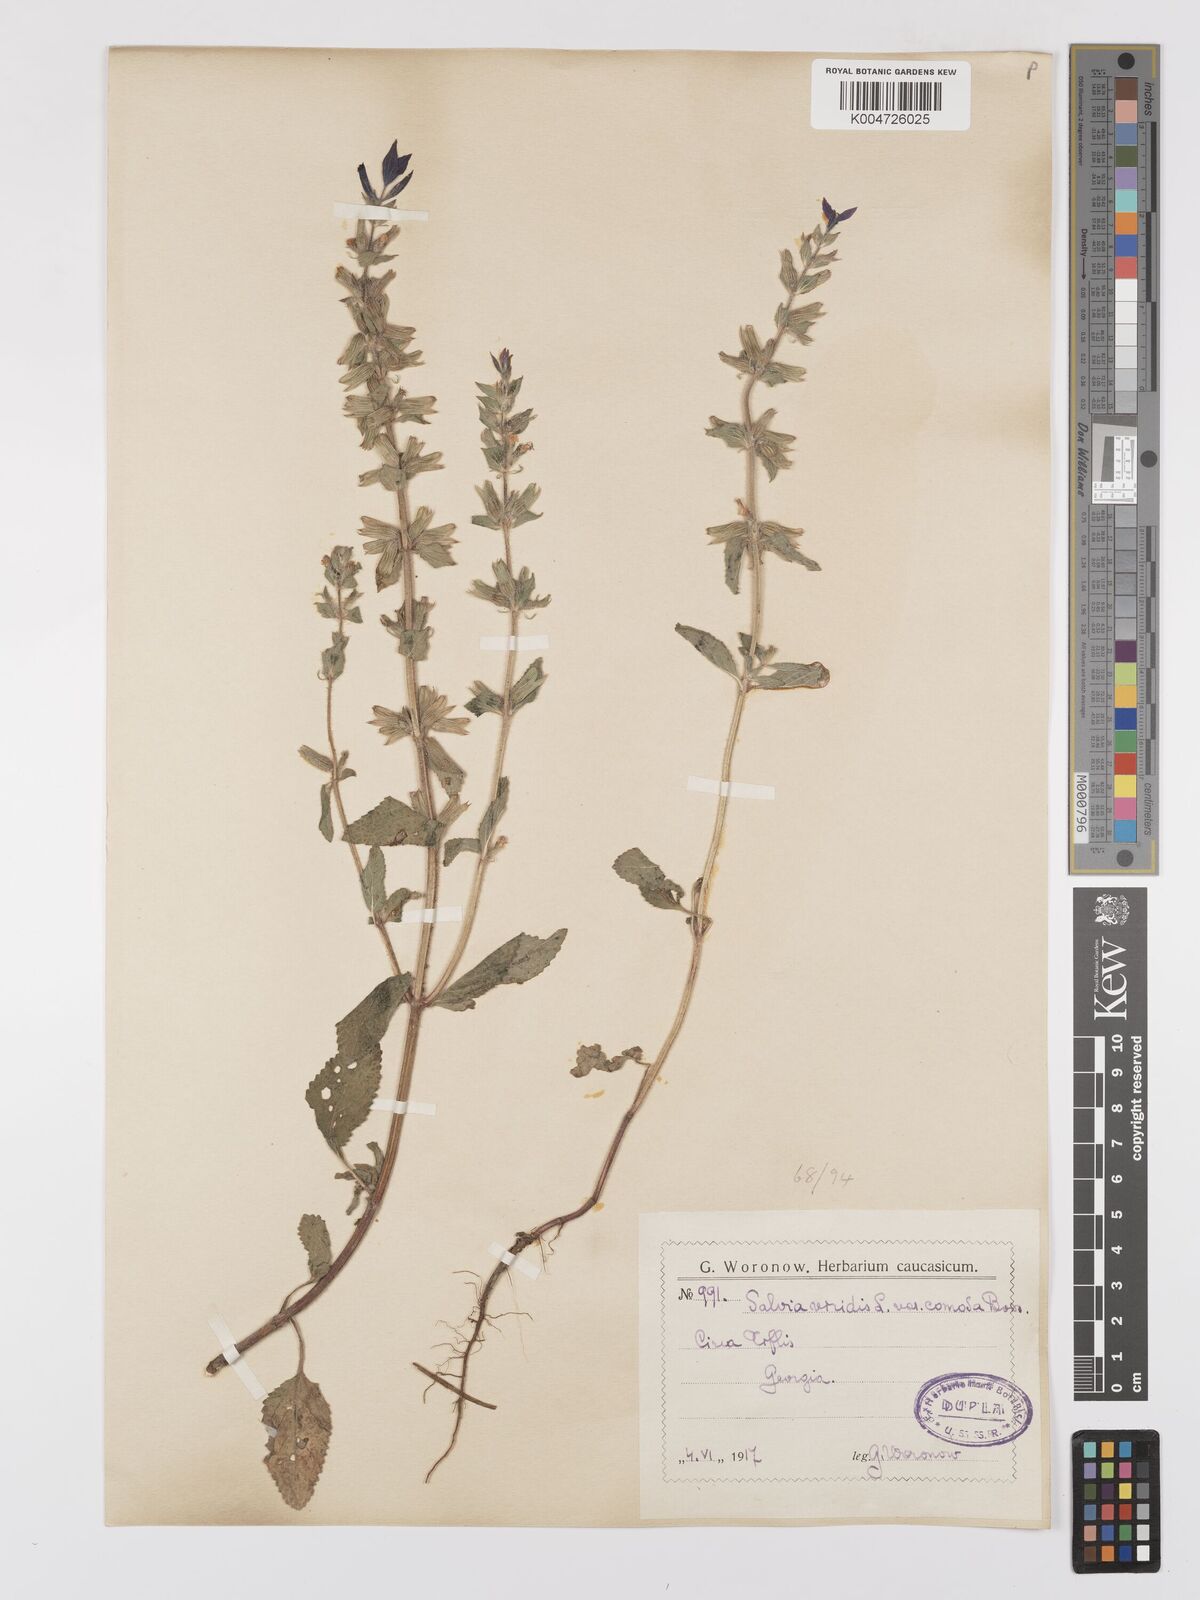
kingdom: Plantae
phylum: Tracheophyta
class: Magnoliopsida
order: Lamiales
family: Lamiaceae
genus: Salvia
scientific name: Salvia viridis
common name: Annual clary
